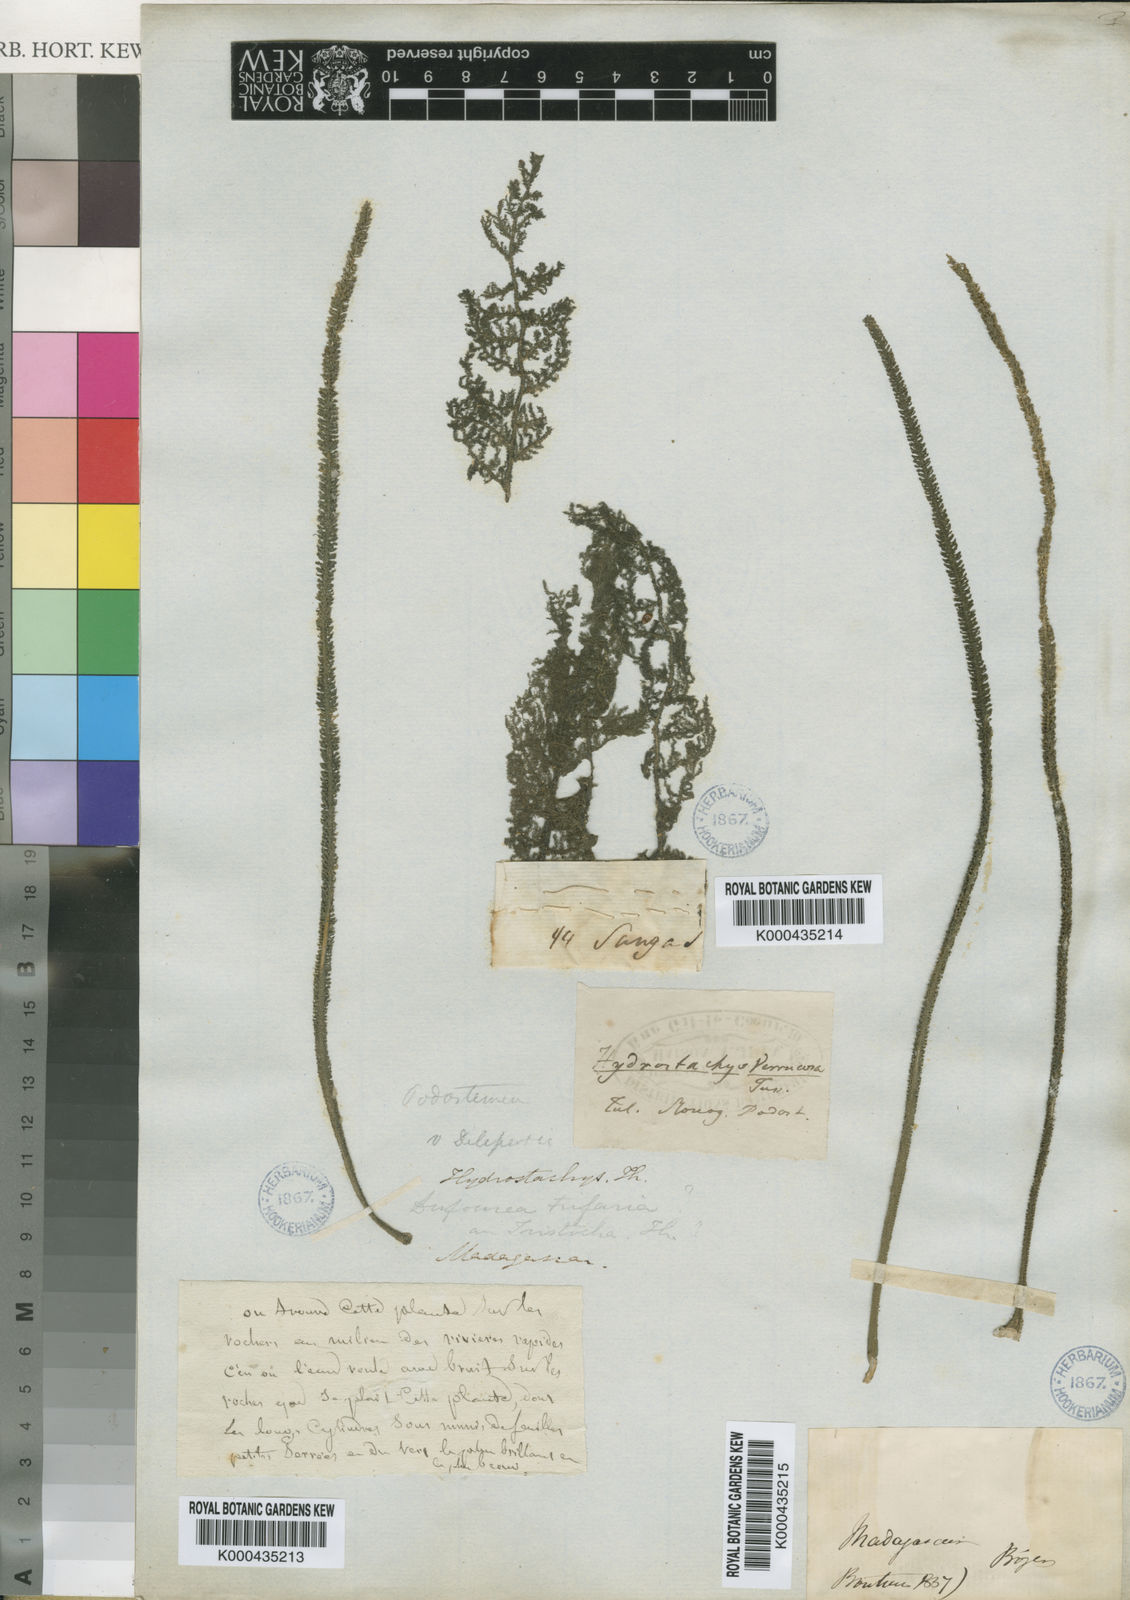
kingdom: Plantae
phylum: Tracheophyta
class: Magnoliopsida
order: Cornales
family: Hydrostachyaceae
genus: Hydrostachys
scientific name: Hydrostachys multifida
